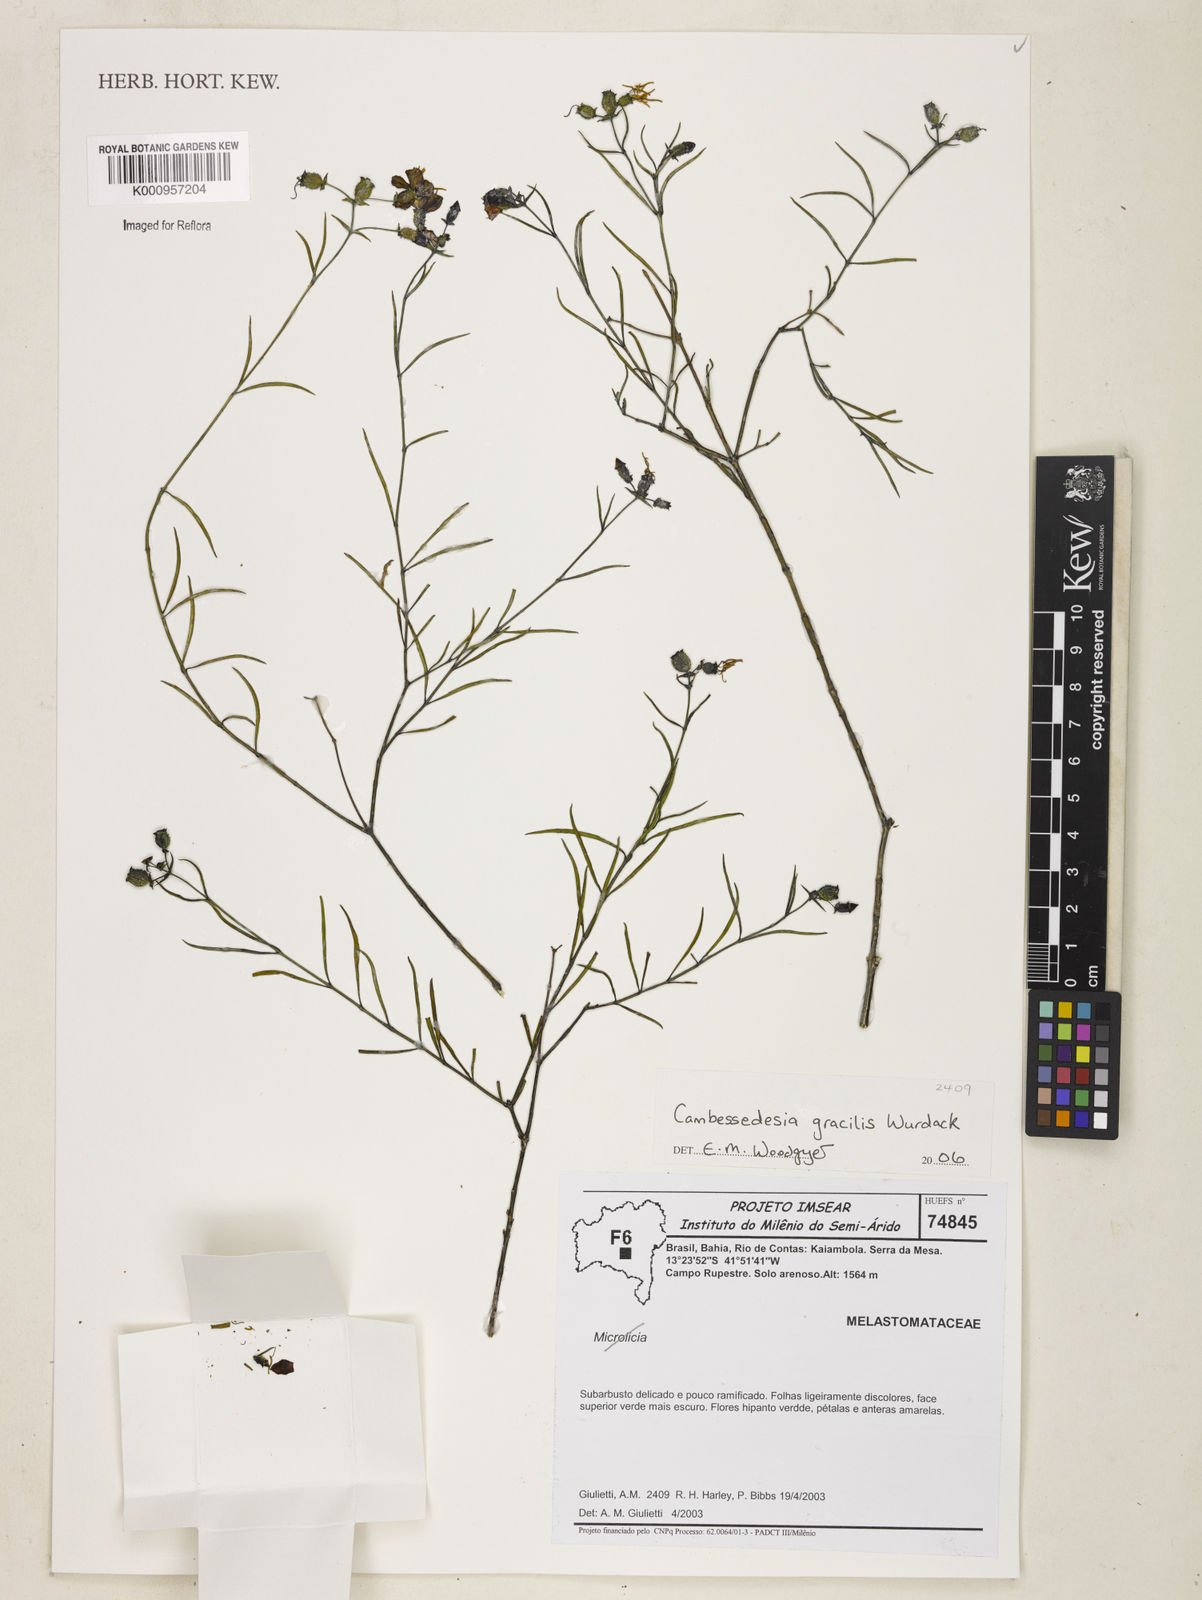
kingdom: Plantae
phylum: Tracheophyta
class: Magnoliopsida
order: Myrtales
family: Melastomataceae
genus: Cambessedesia
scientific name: Cambessedesia gracilis
